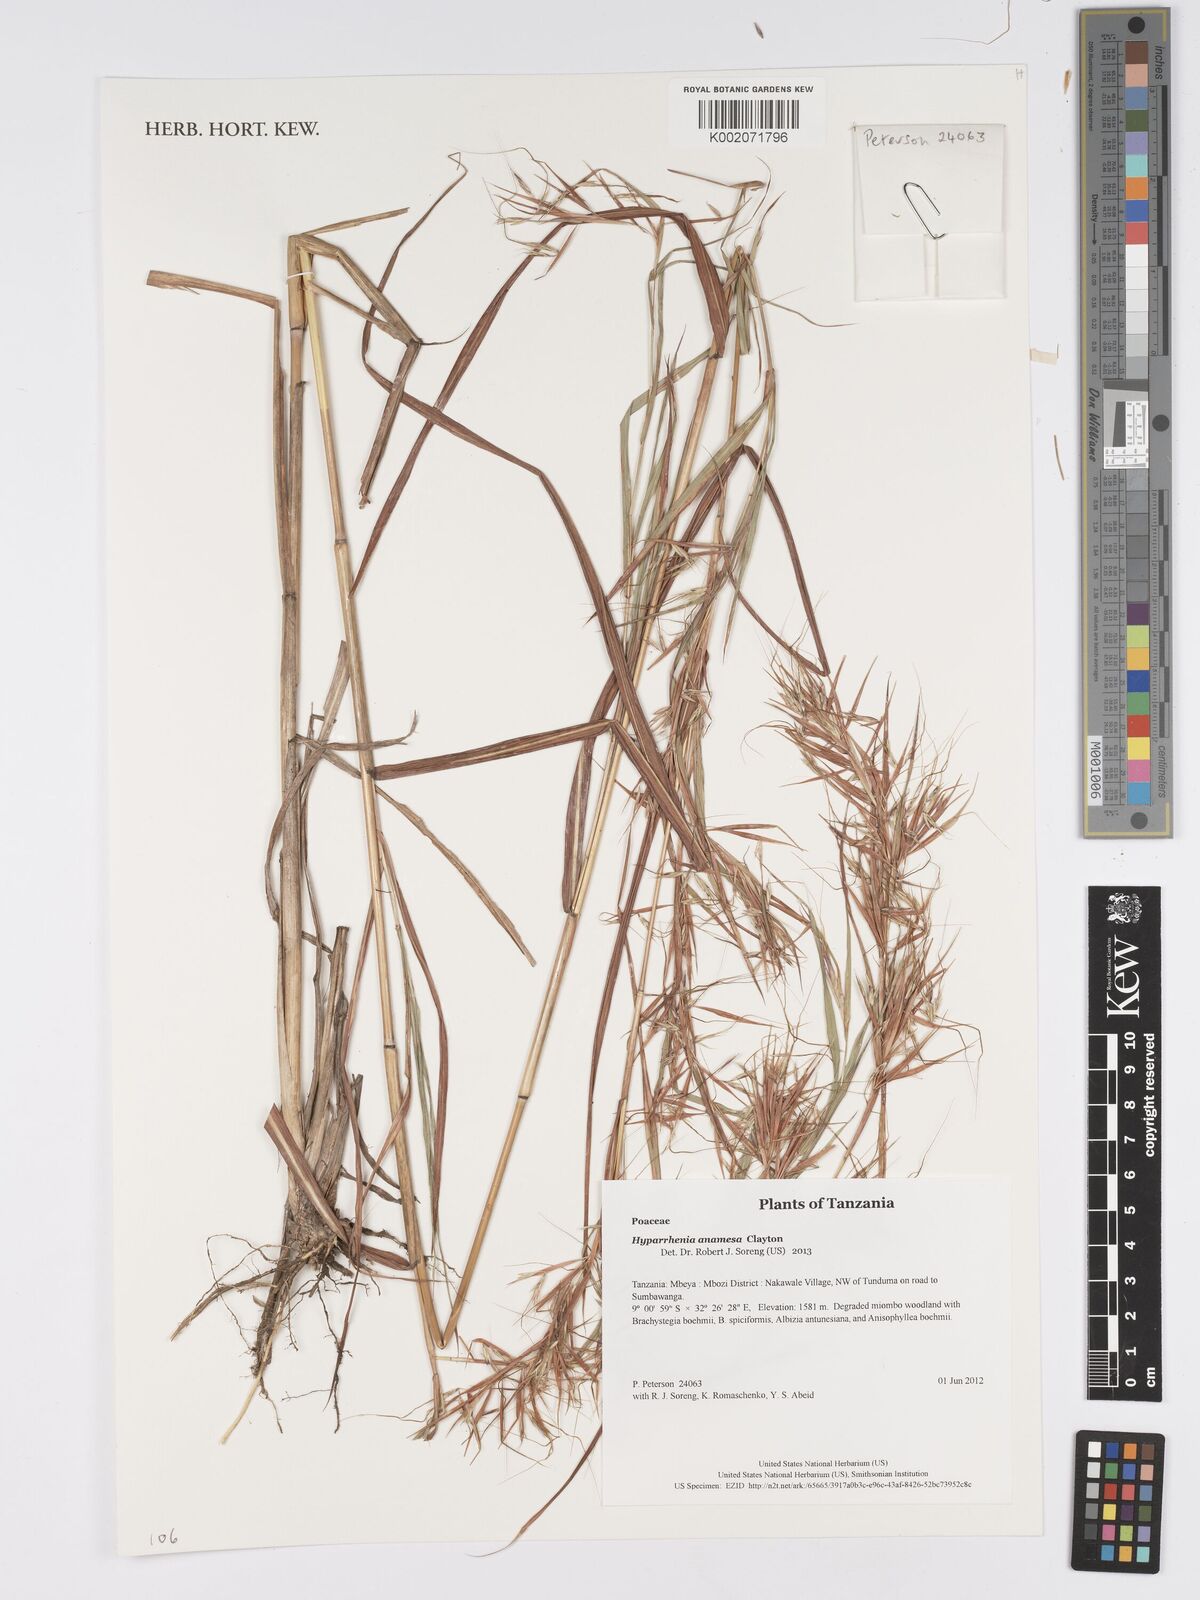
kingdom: Plantae
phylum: Tracheophyta
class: Liliopsida
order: Poales
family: Poaceae
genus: Hyparrhenia
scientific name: Hyparrhenia anamesa
